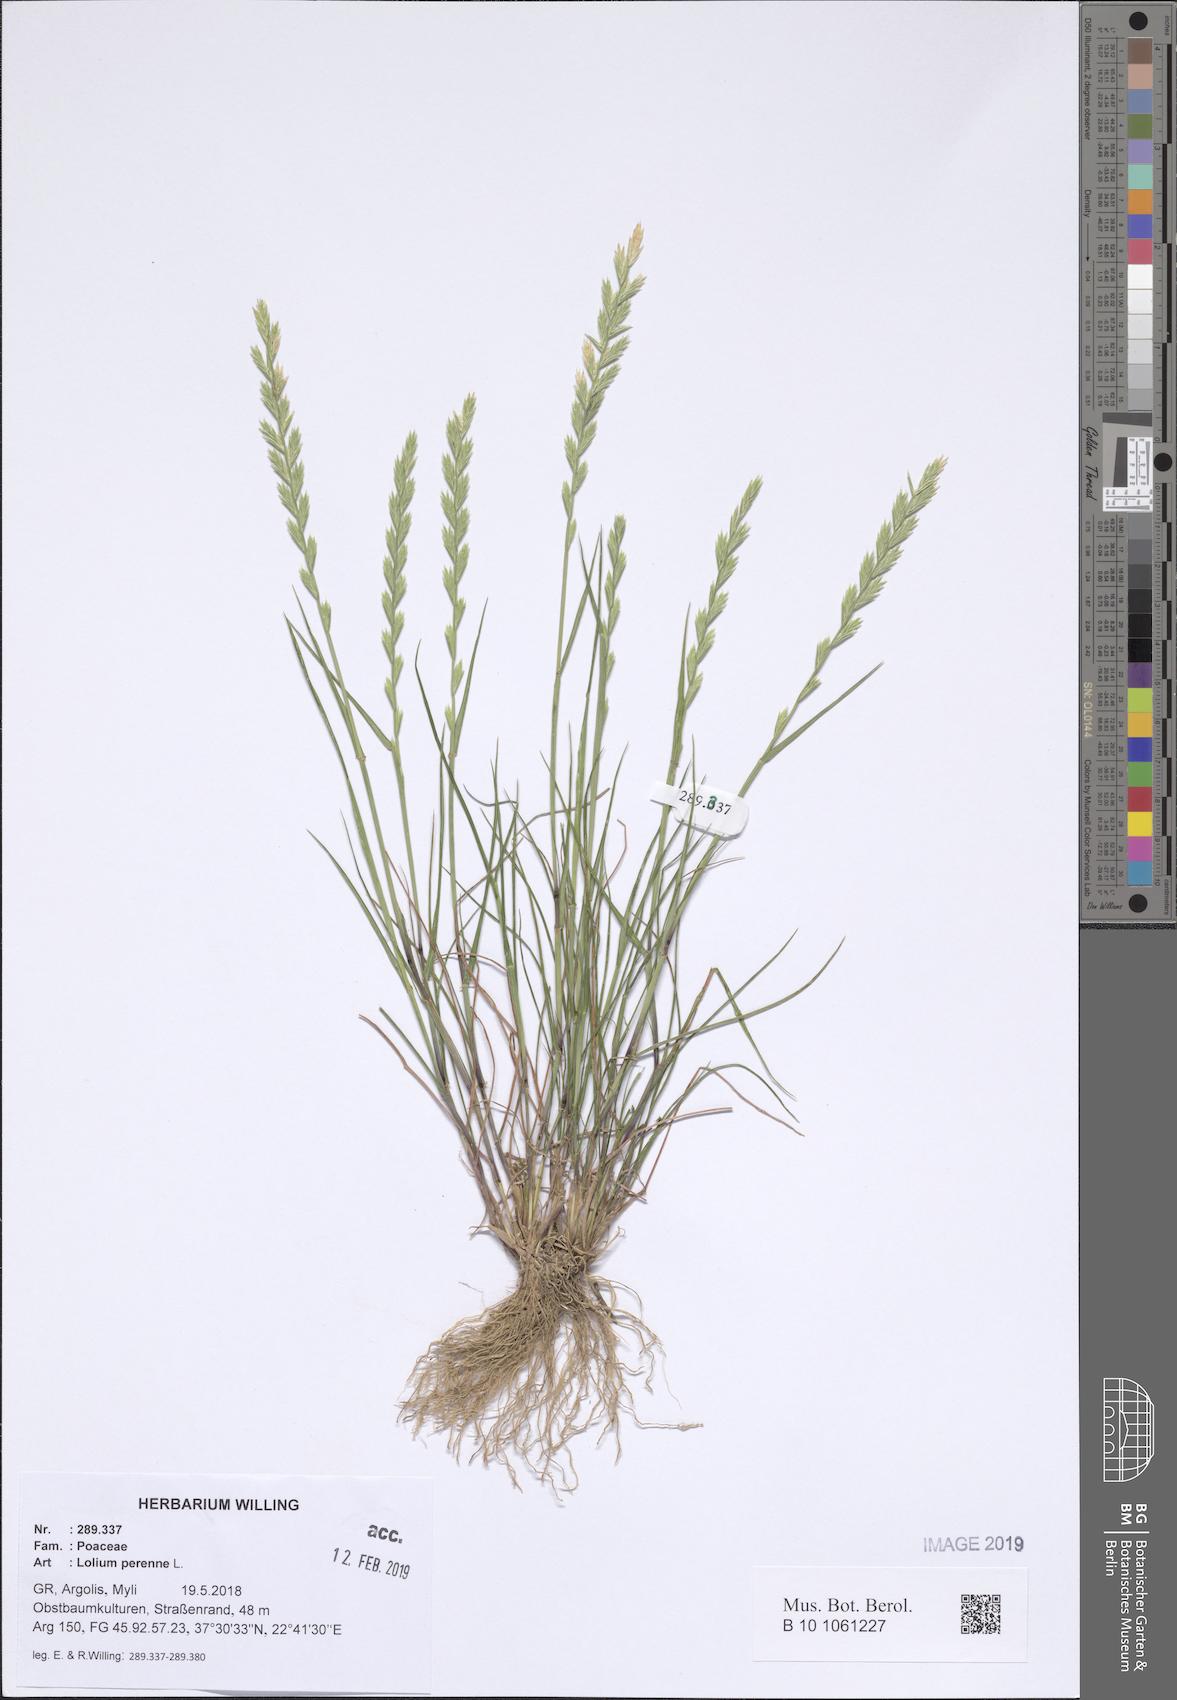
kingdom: Plantae
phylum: Tracheophyta
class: Liliopsida
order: Poales
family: Poaceae
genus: Lolium
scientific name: Lolium perenne
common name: Perennial ryegrass
